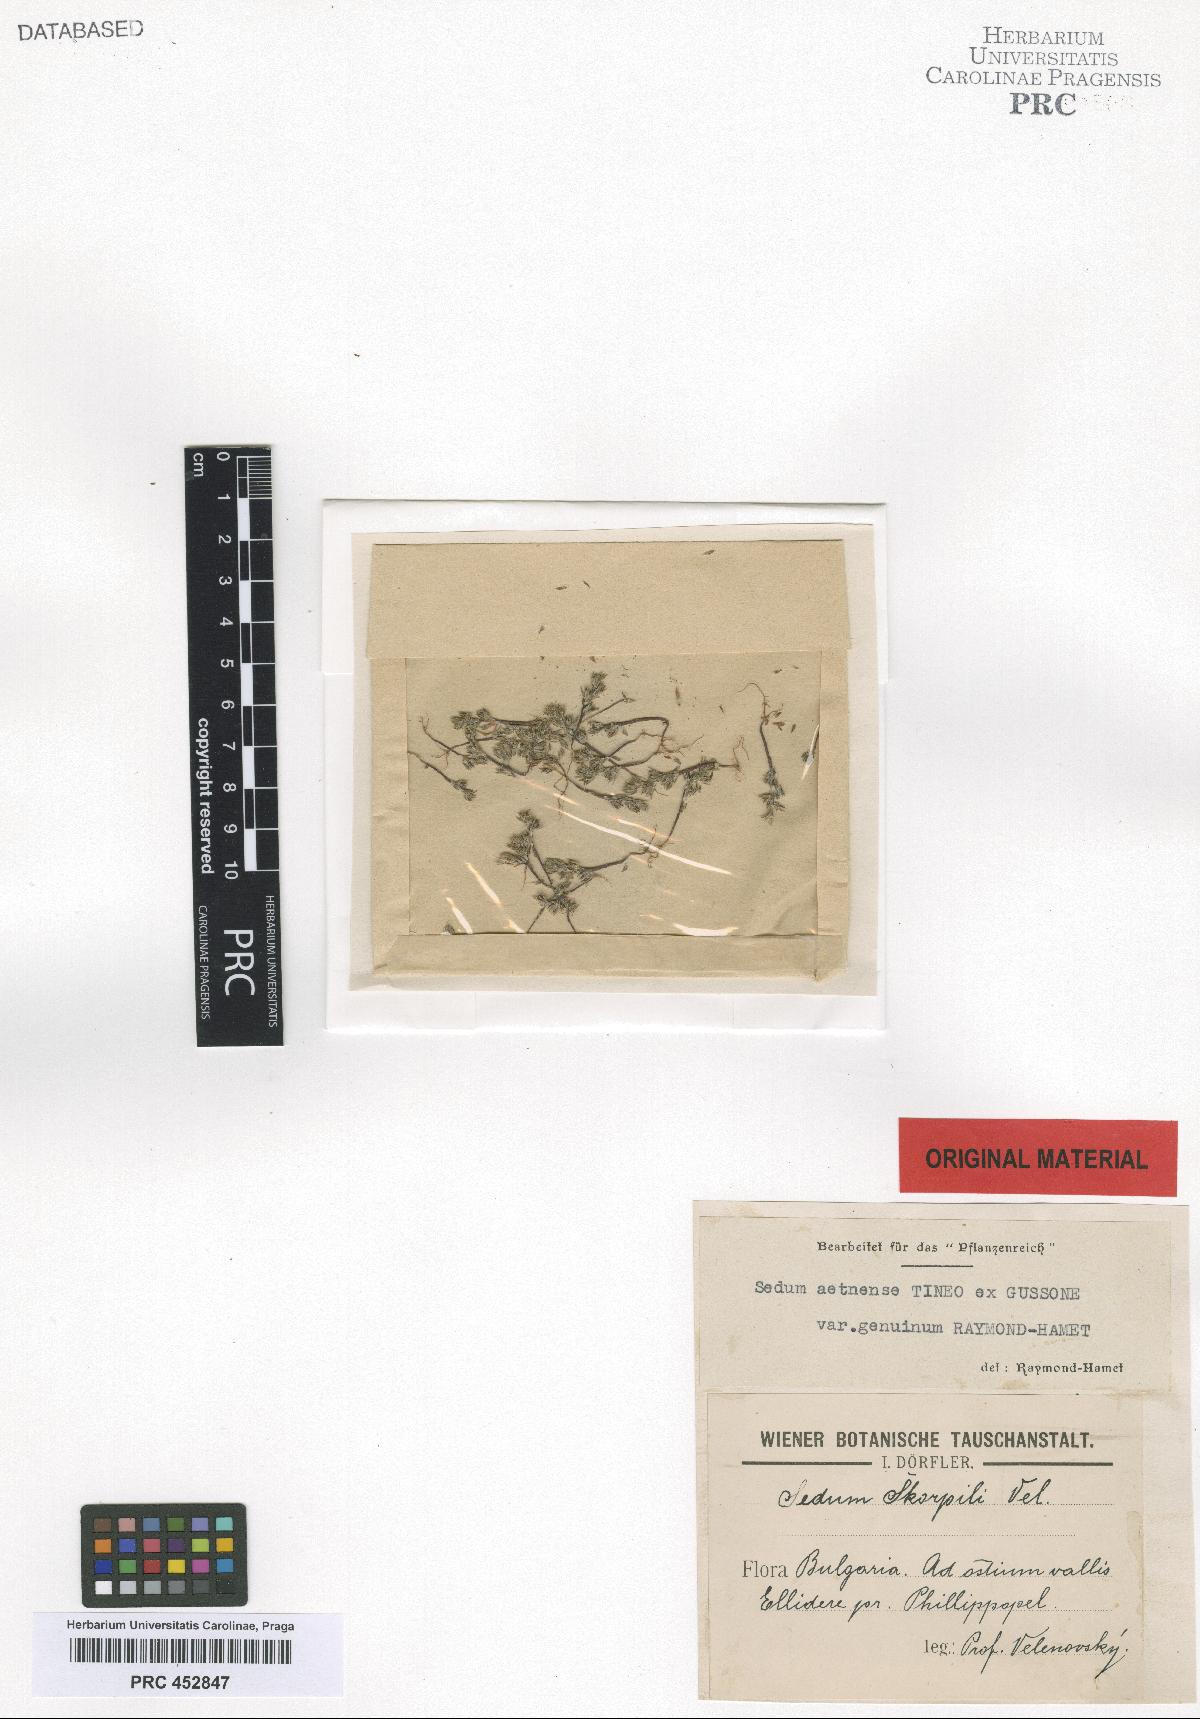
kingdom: Plantae
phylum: Tracheophyta
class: Magnoliopsida
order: Saxifragales
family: Crassulaceae
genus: Sedum
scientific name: Sedum aetnense
